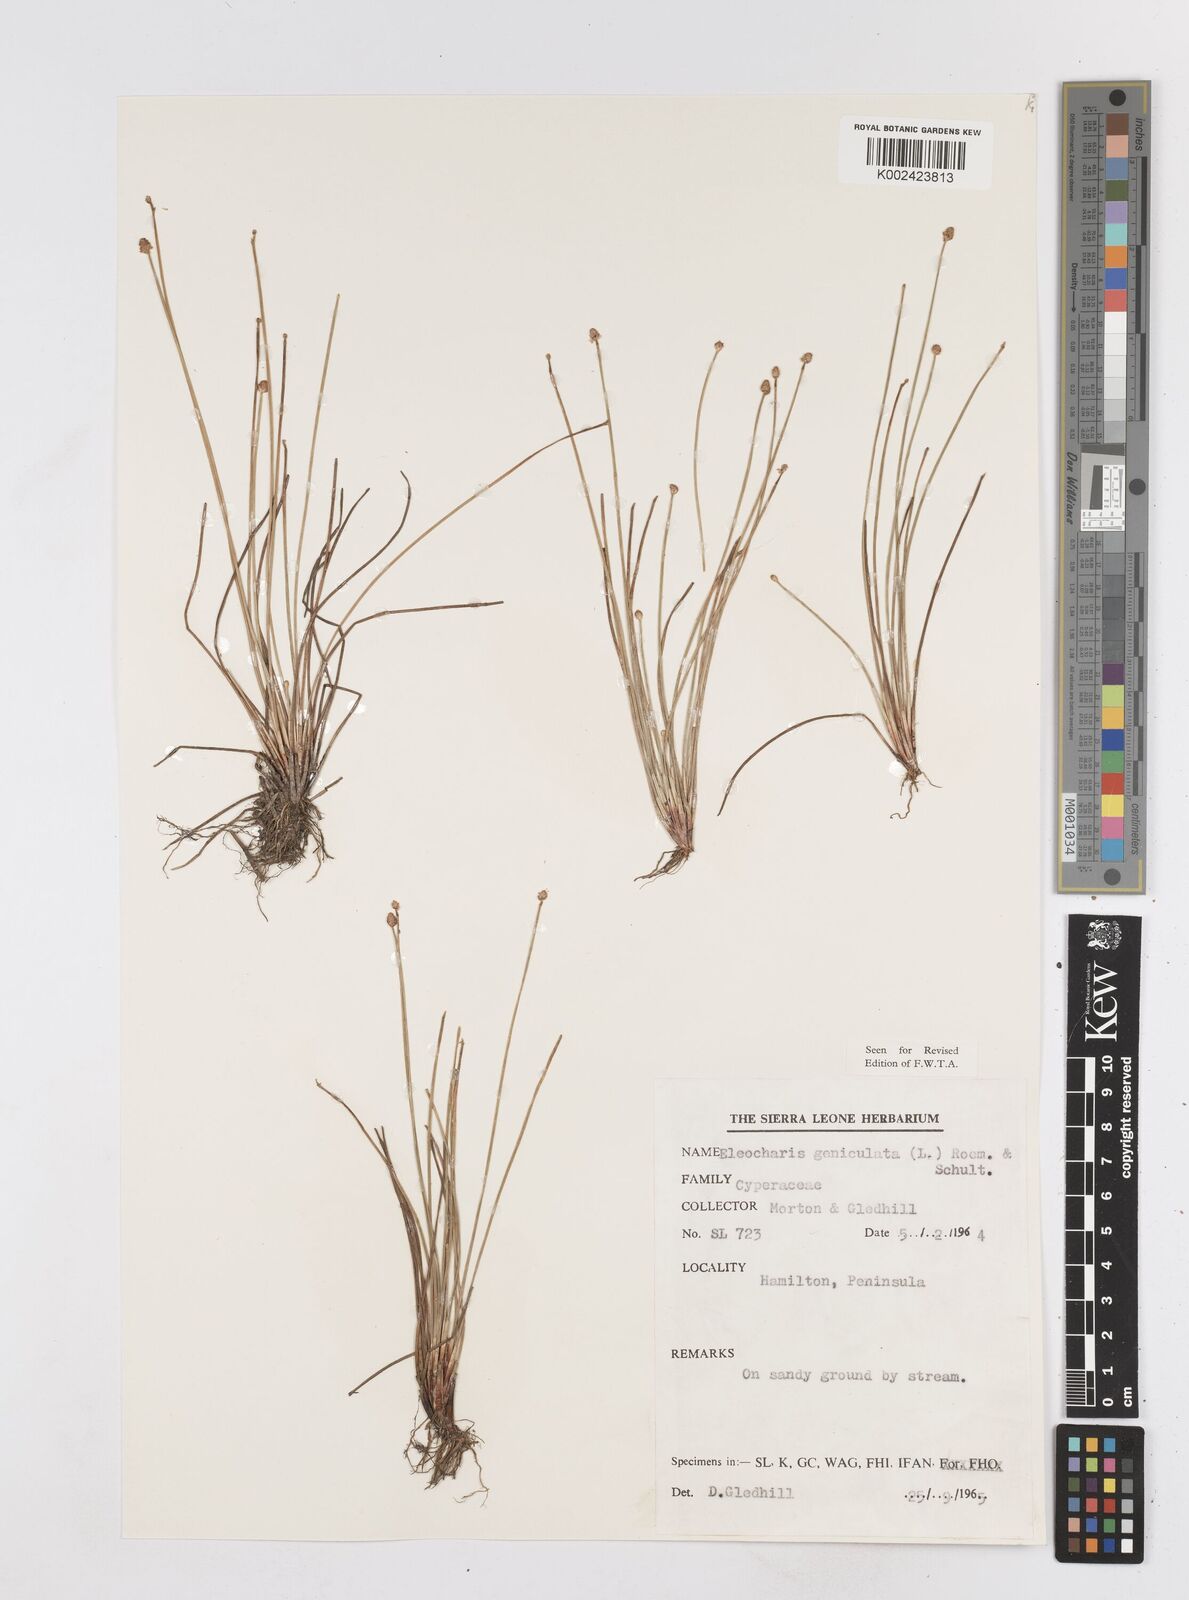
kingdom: Plantae
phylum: Tracheophyta
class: Liliopsida
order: Poales
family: Cyperaceae
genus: Eleocharis
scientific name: Eleocharis geniculata
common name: Canada spikesedge
